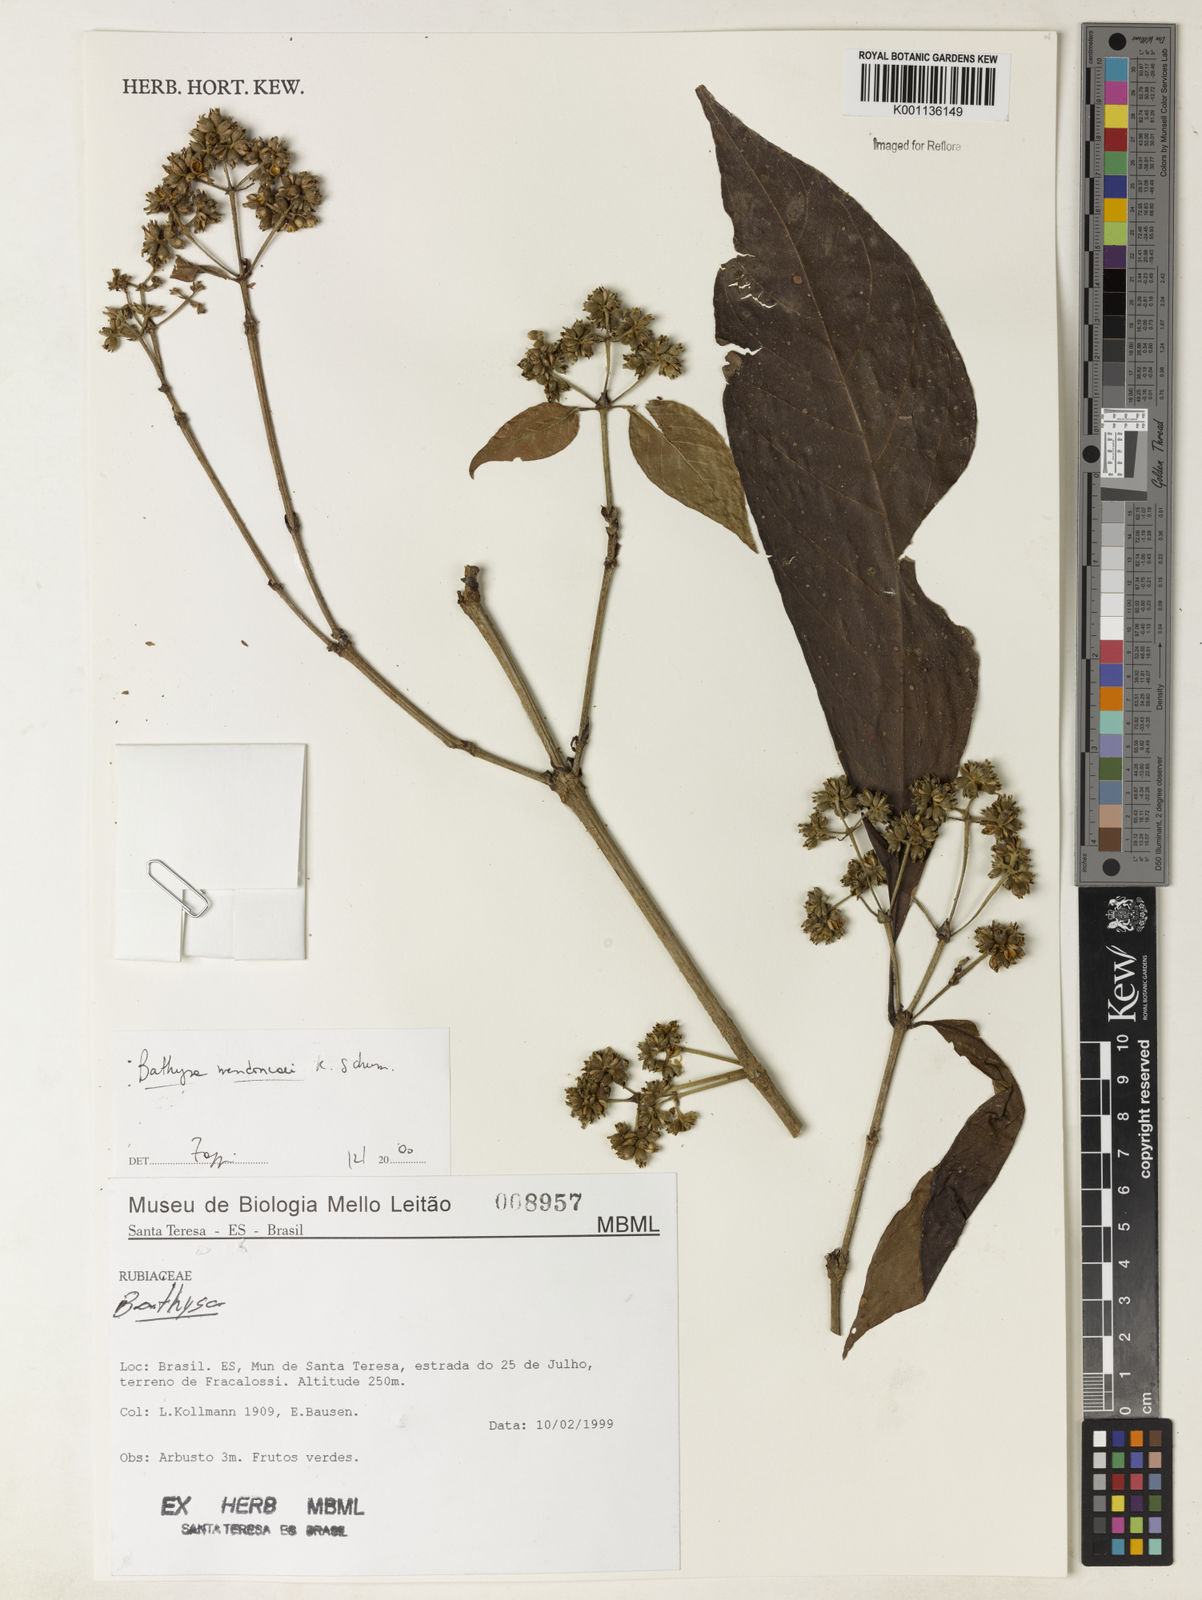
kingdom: Plantae
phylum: Tracheophyta
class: Magnoliopsida
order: Gentianales
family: Rubiaceae
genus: Bathysa
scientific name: Bathysa
